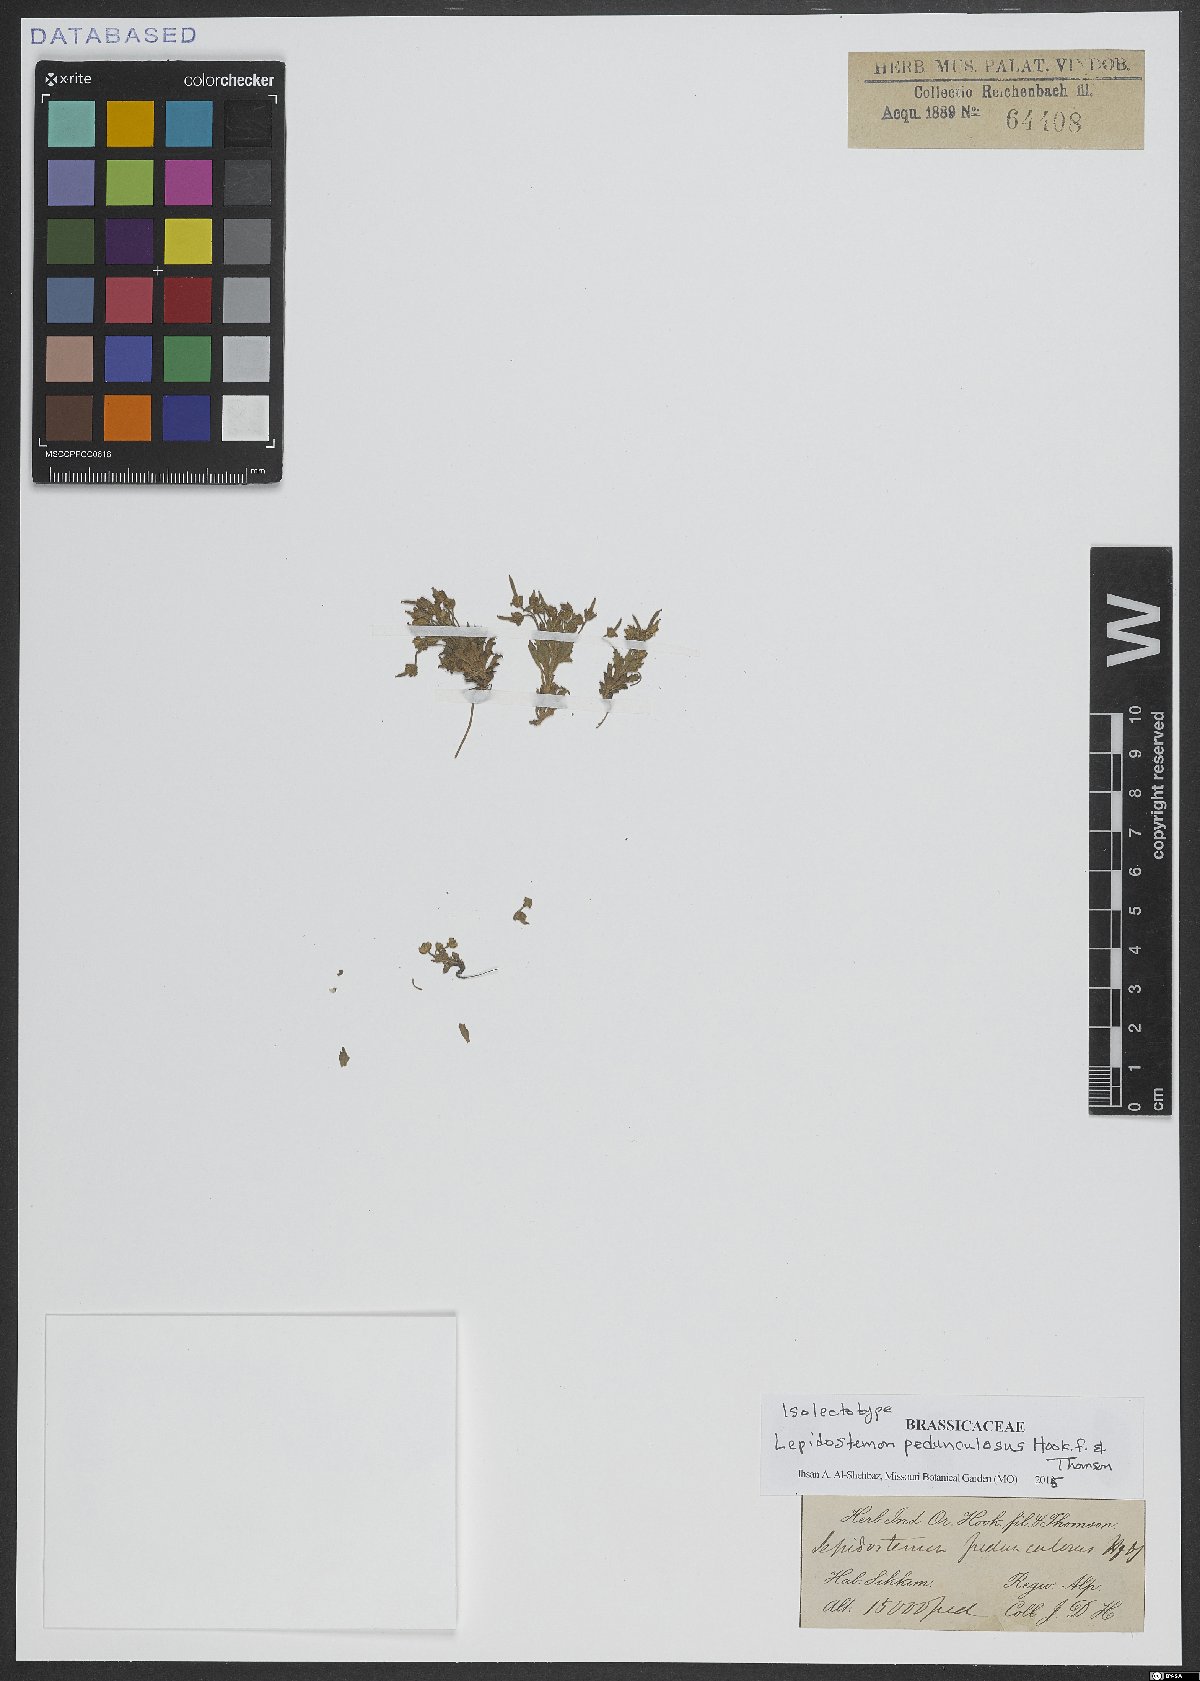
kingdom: Plantae
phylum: Tracheophyta
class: Magnoliopsida
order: Brassicales
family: Brassicaceae
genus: Lepidostemon
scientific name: Lepidostemon pedunculosus
